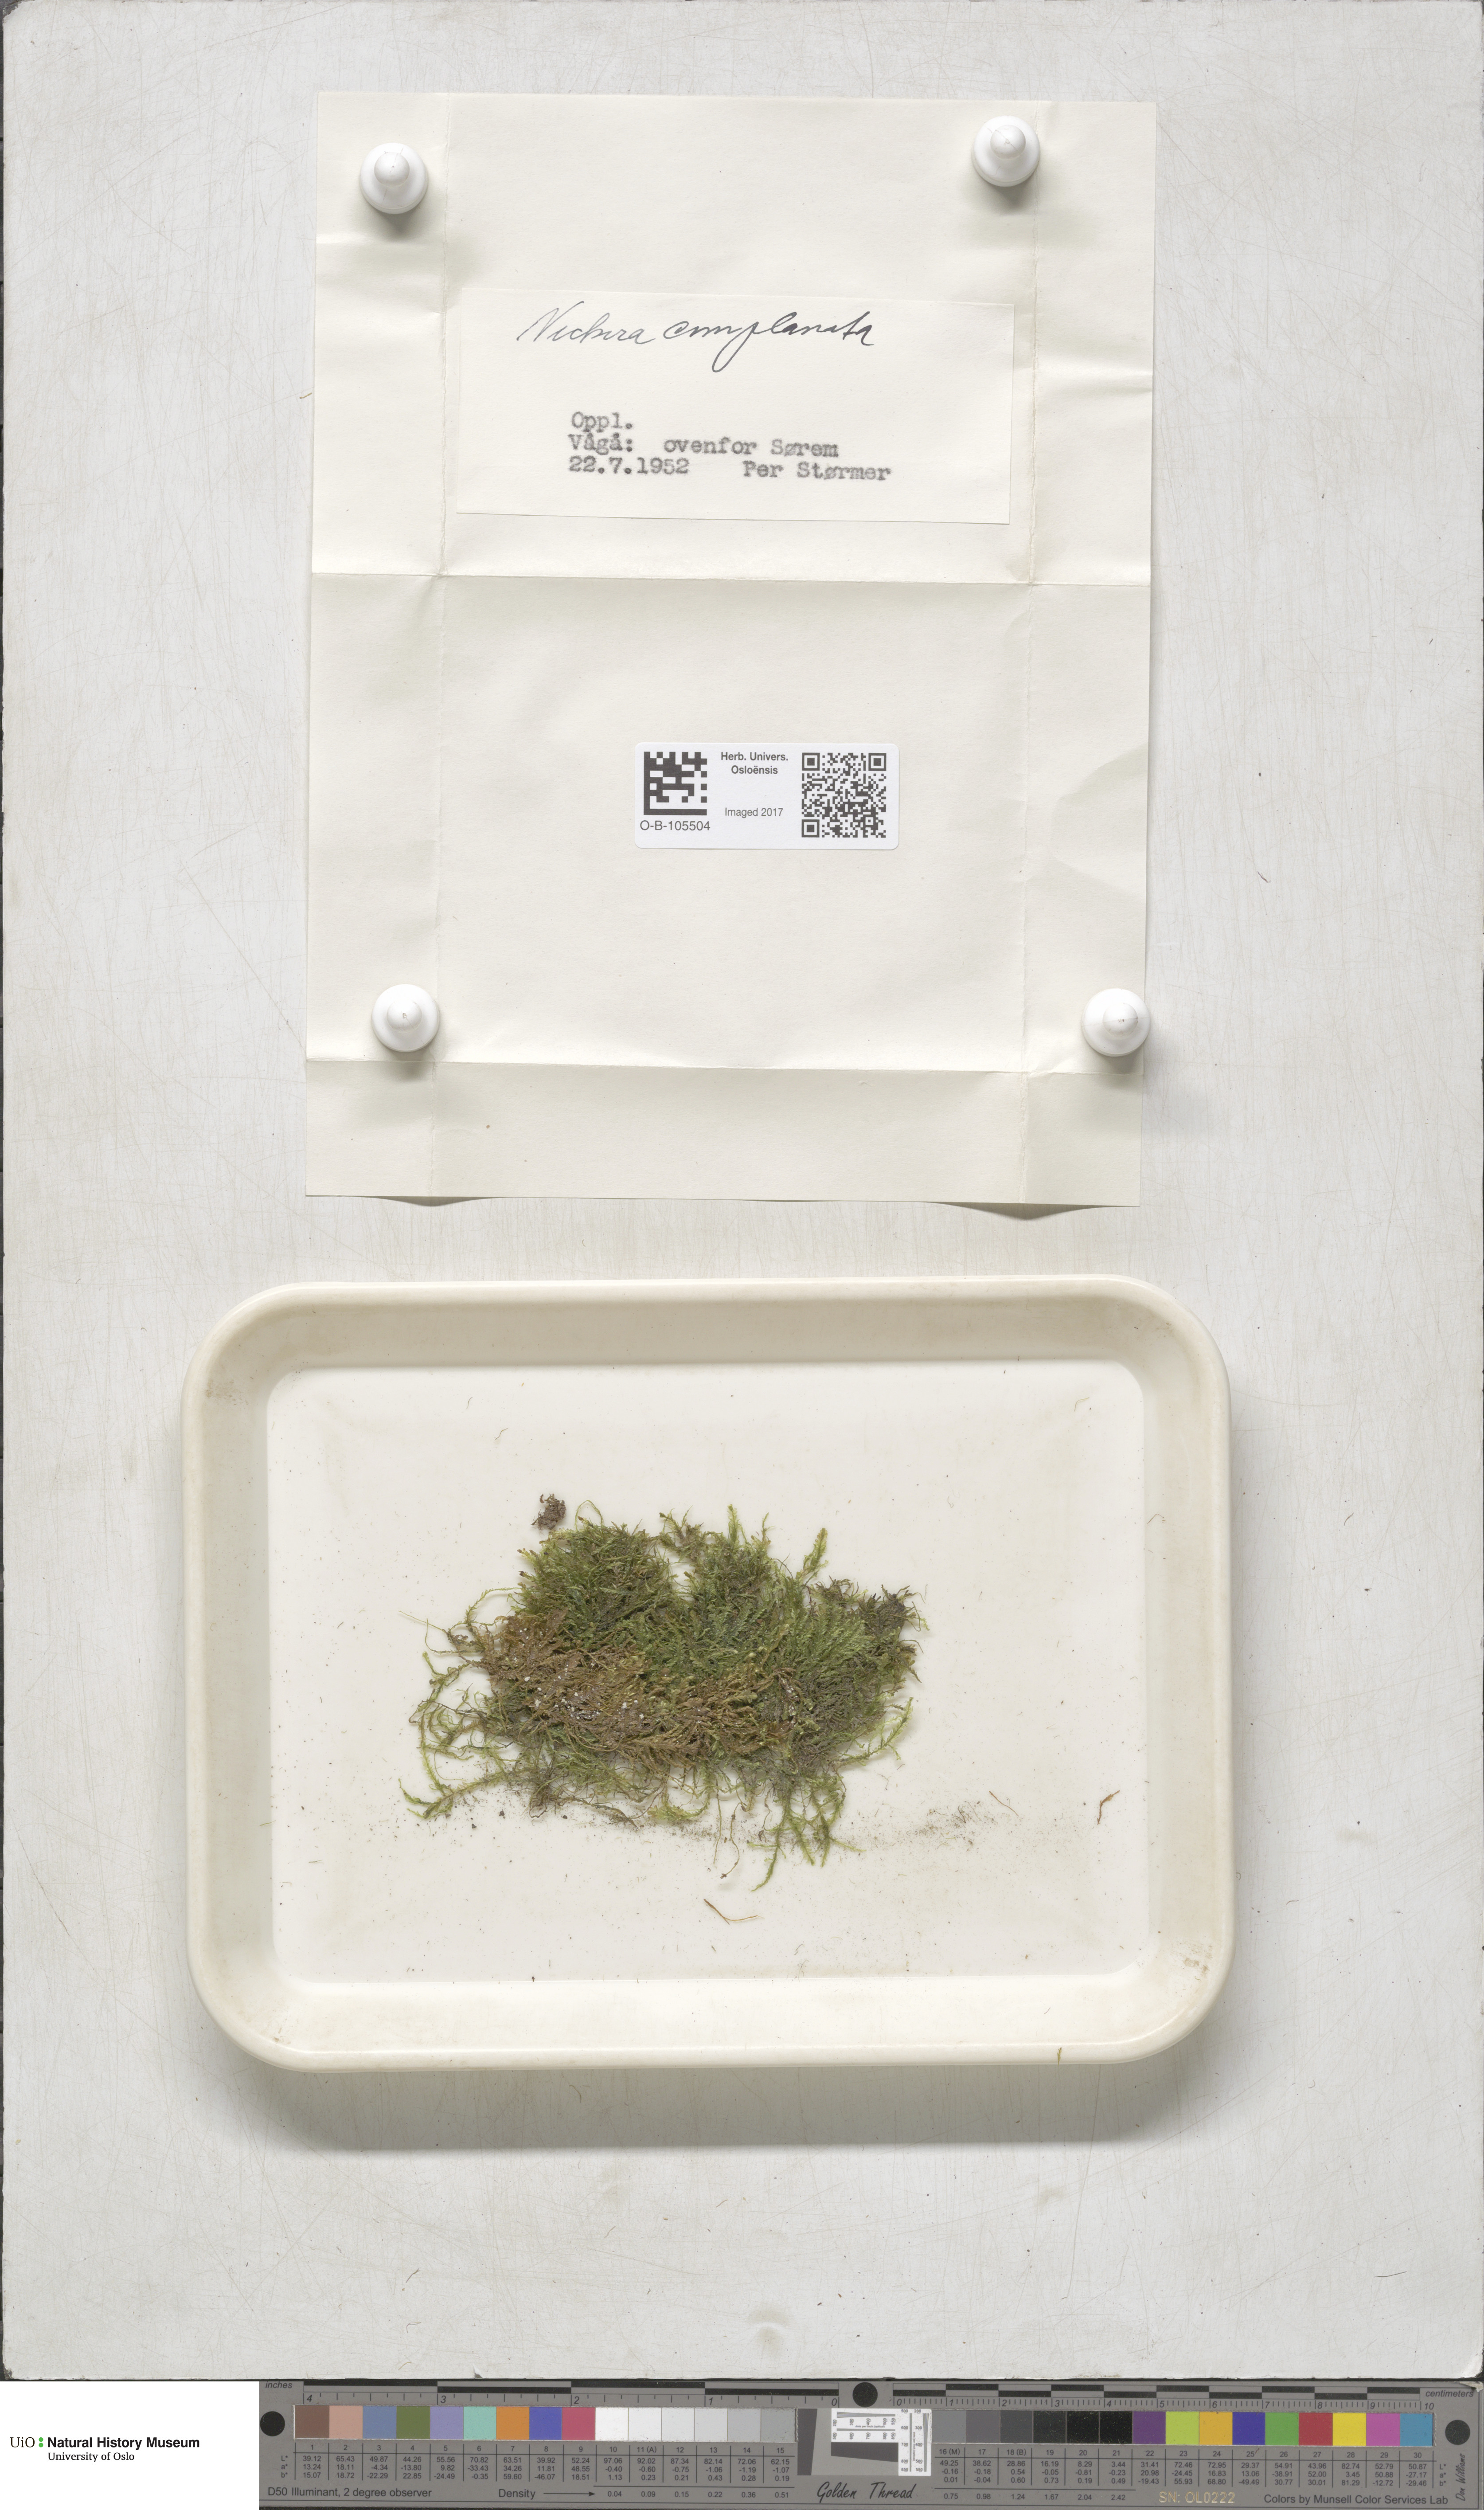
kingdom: Plantae
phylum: Bryophyta
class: Bryopsida
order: Hypnales
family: Neckeraceae
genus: Alleniella
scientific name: Alleniella complanata
